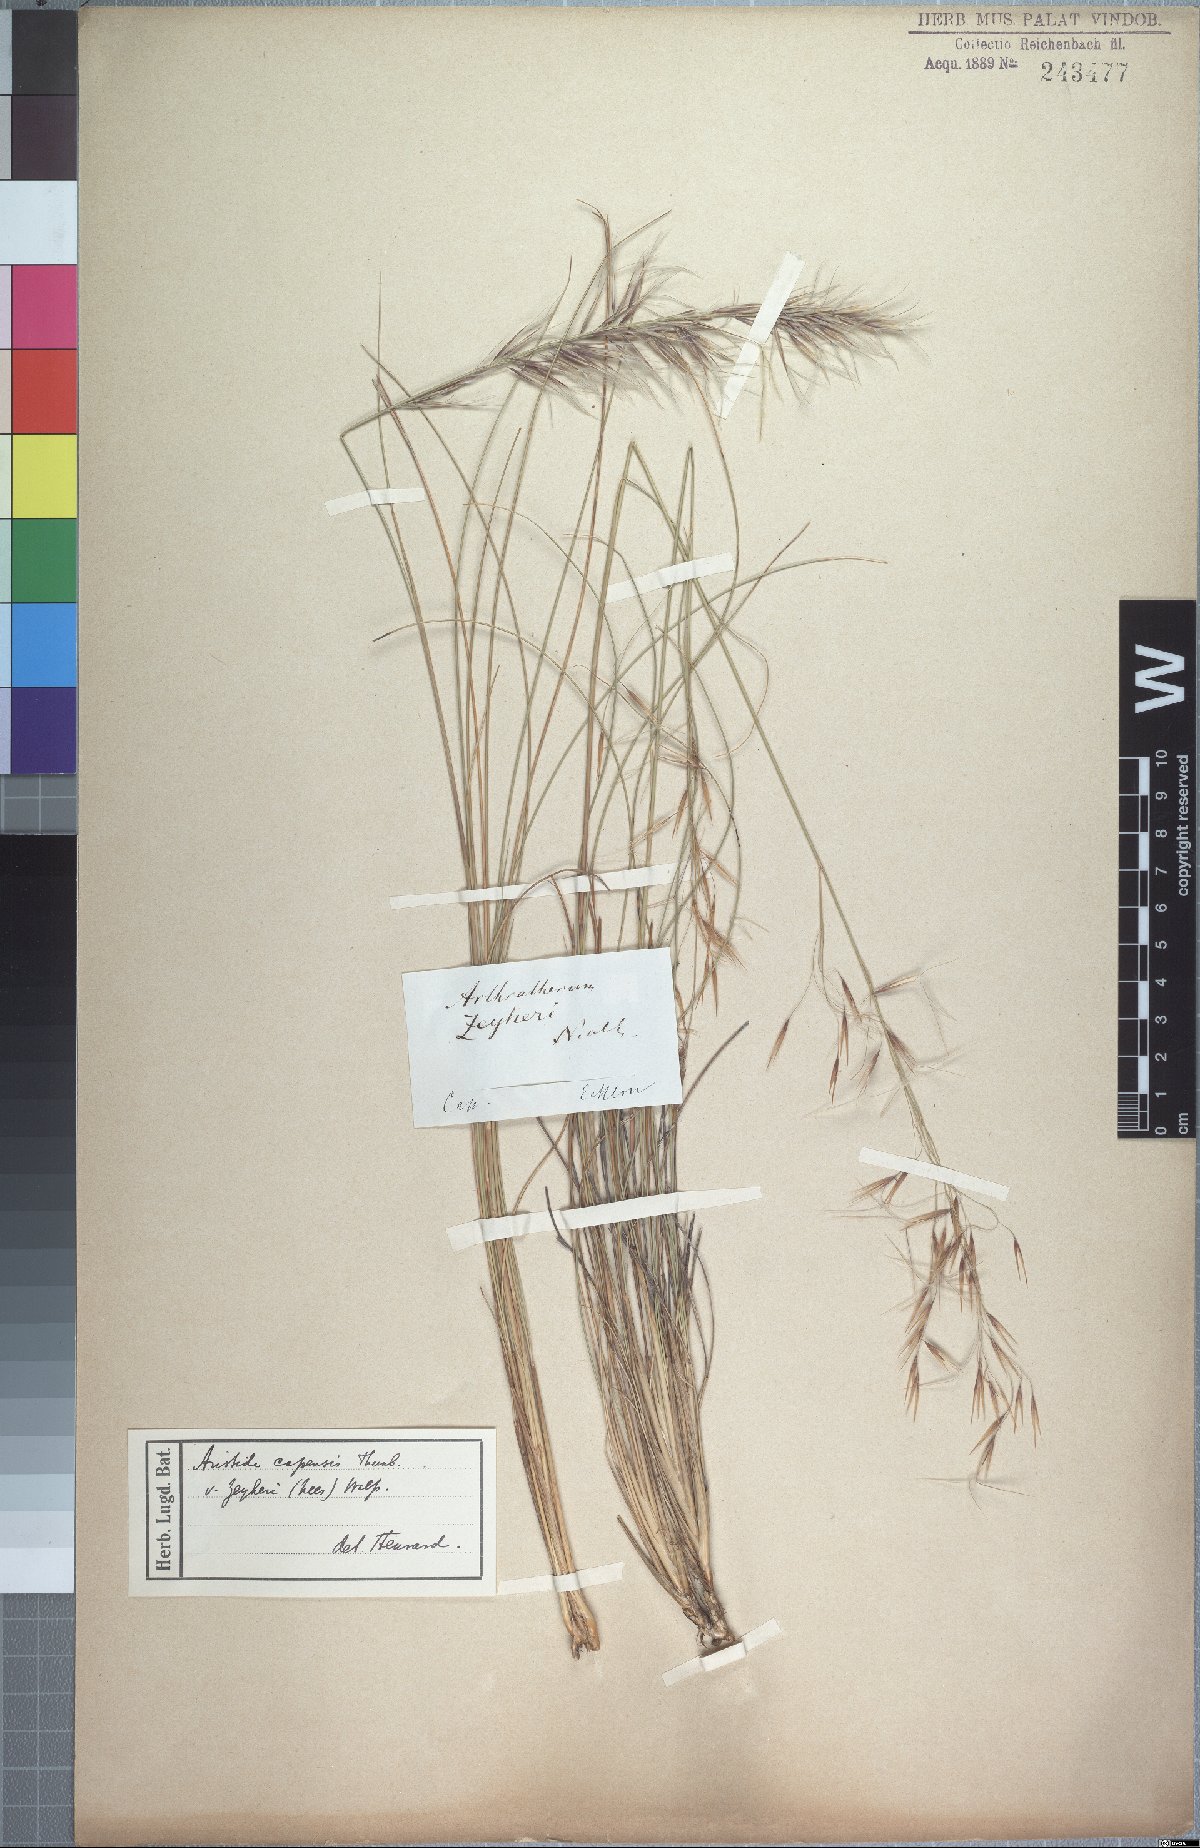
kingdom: Plantae
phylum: Tracheophyta
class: Liliopsida
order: Poales
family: Poaceae
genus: Stipagrostis
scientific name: Stipagrostis zeyheri
